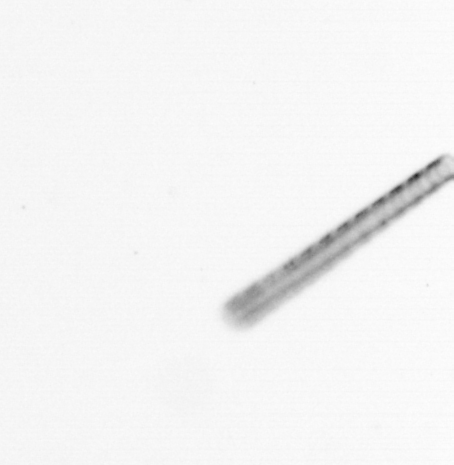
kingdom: Chromista
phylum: Ochrophyta
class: Bacillariophyceae
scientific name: Bacillariophyceae
